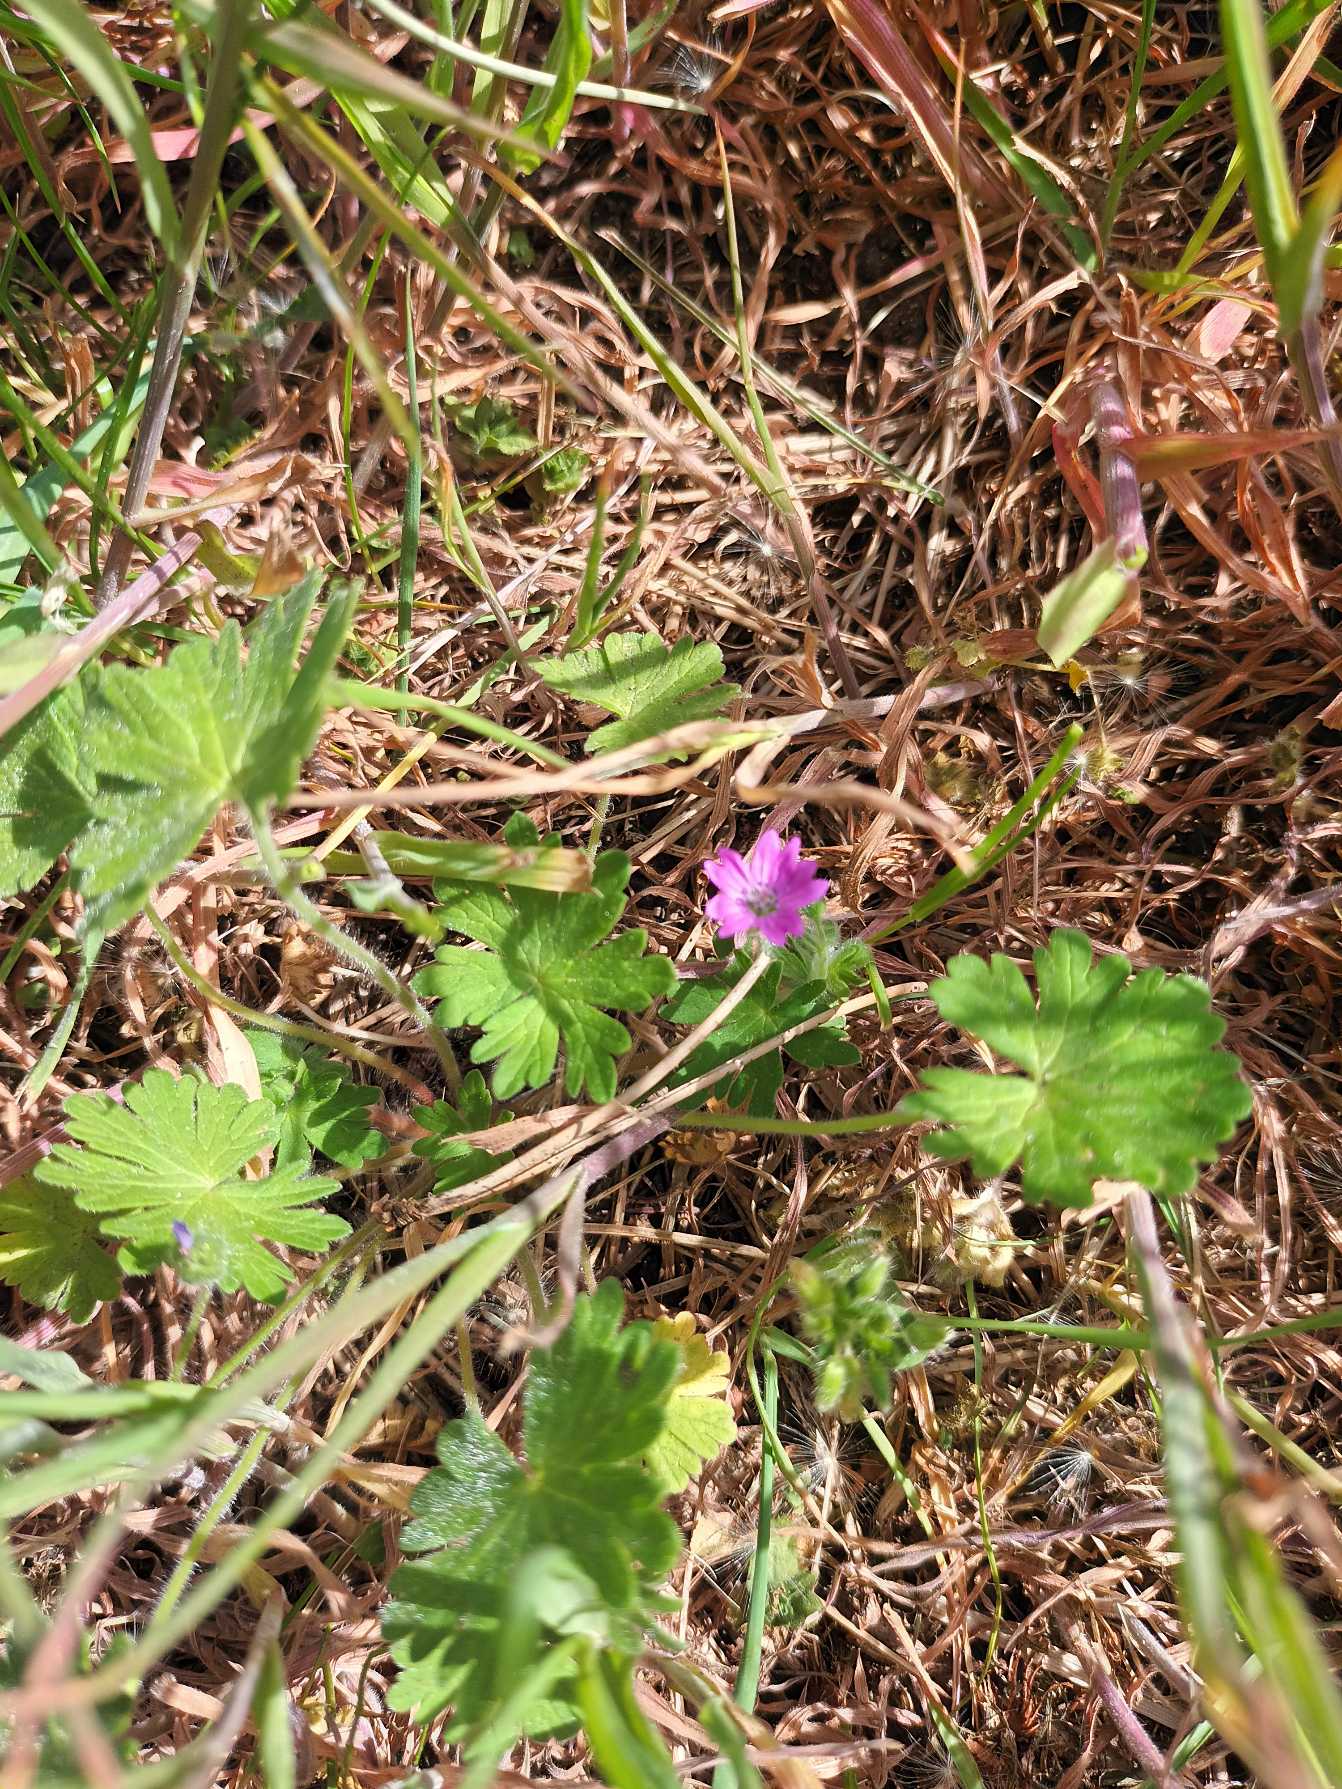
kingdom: Plantae
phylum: Tracheophyta
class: Magnoliopsida
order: Geraniales
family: Geraniaceae
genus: Geranium
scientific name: Geranium molle
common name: Blød storkenæb
